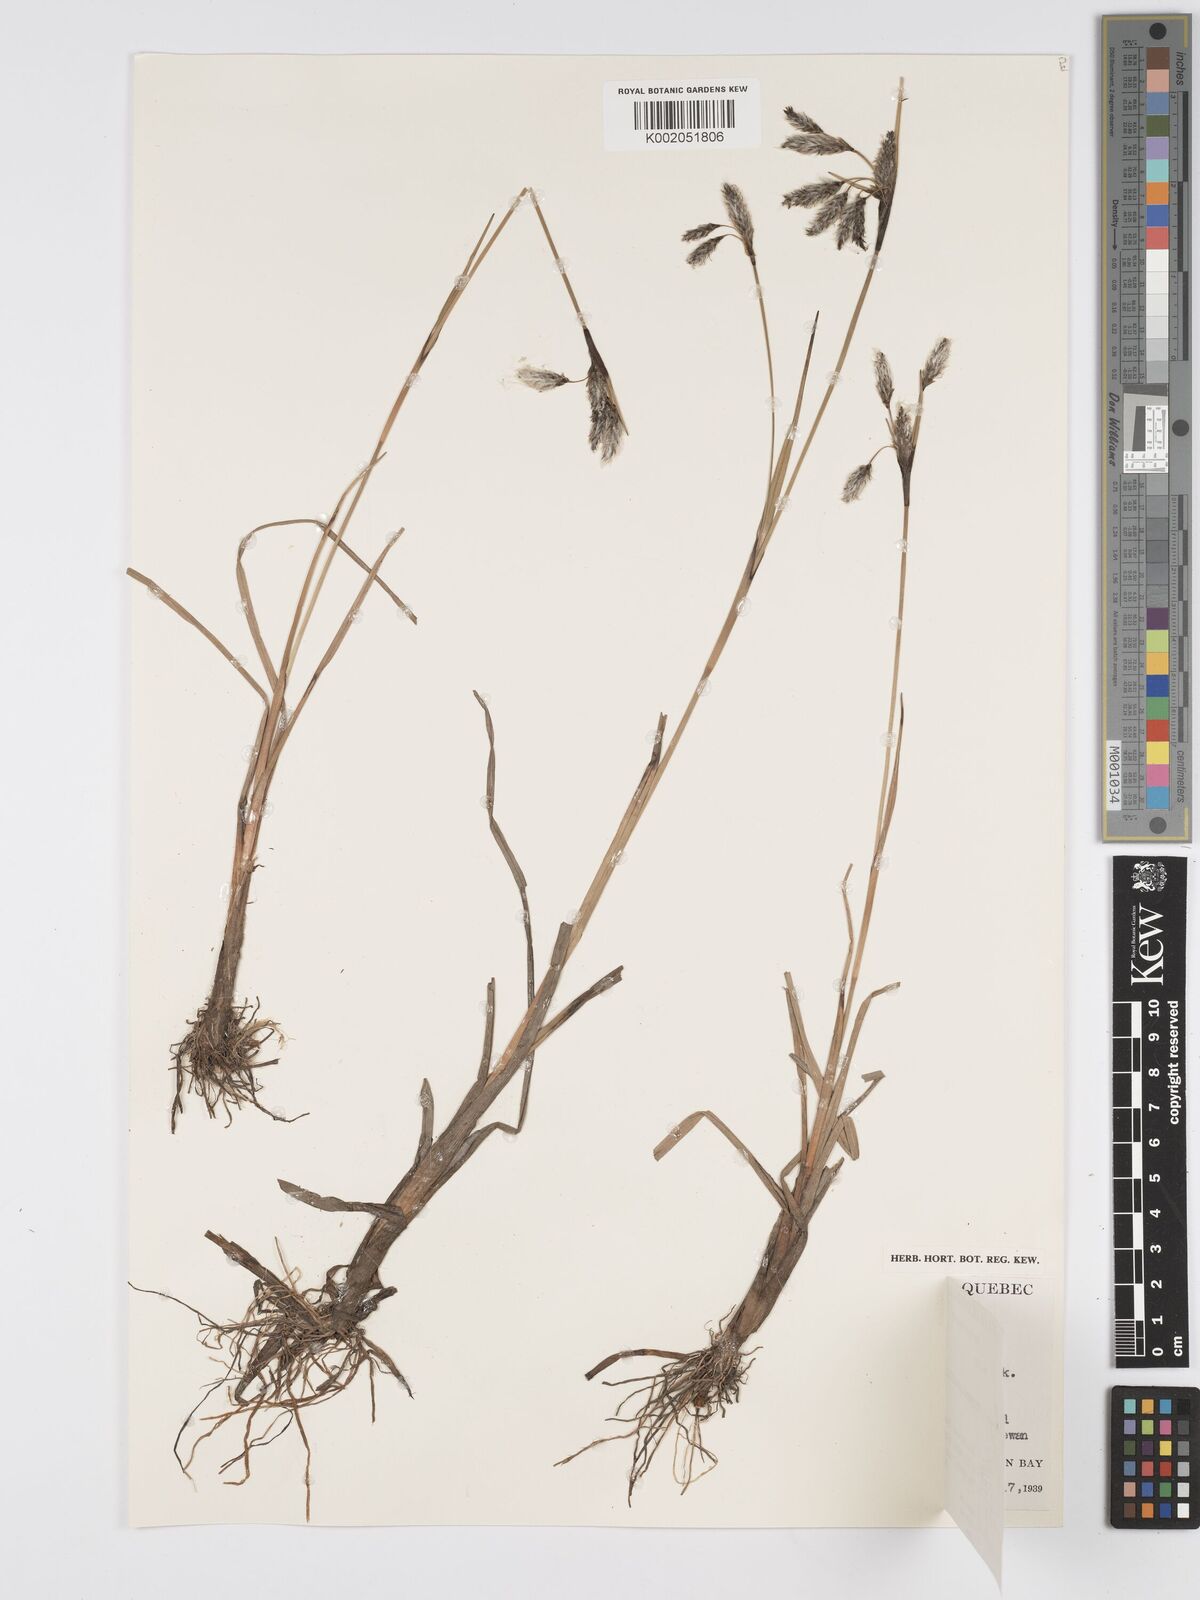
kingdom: Plantae
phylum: Tracheophyta
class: Liliopsida
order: Poales
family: Cyperaceae
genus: Eriophorum
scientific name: Eriophorum angustifolium
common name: Common cottongrass
